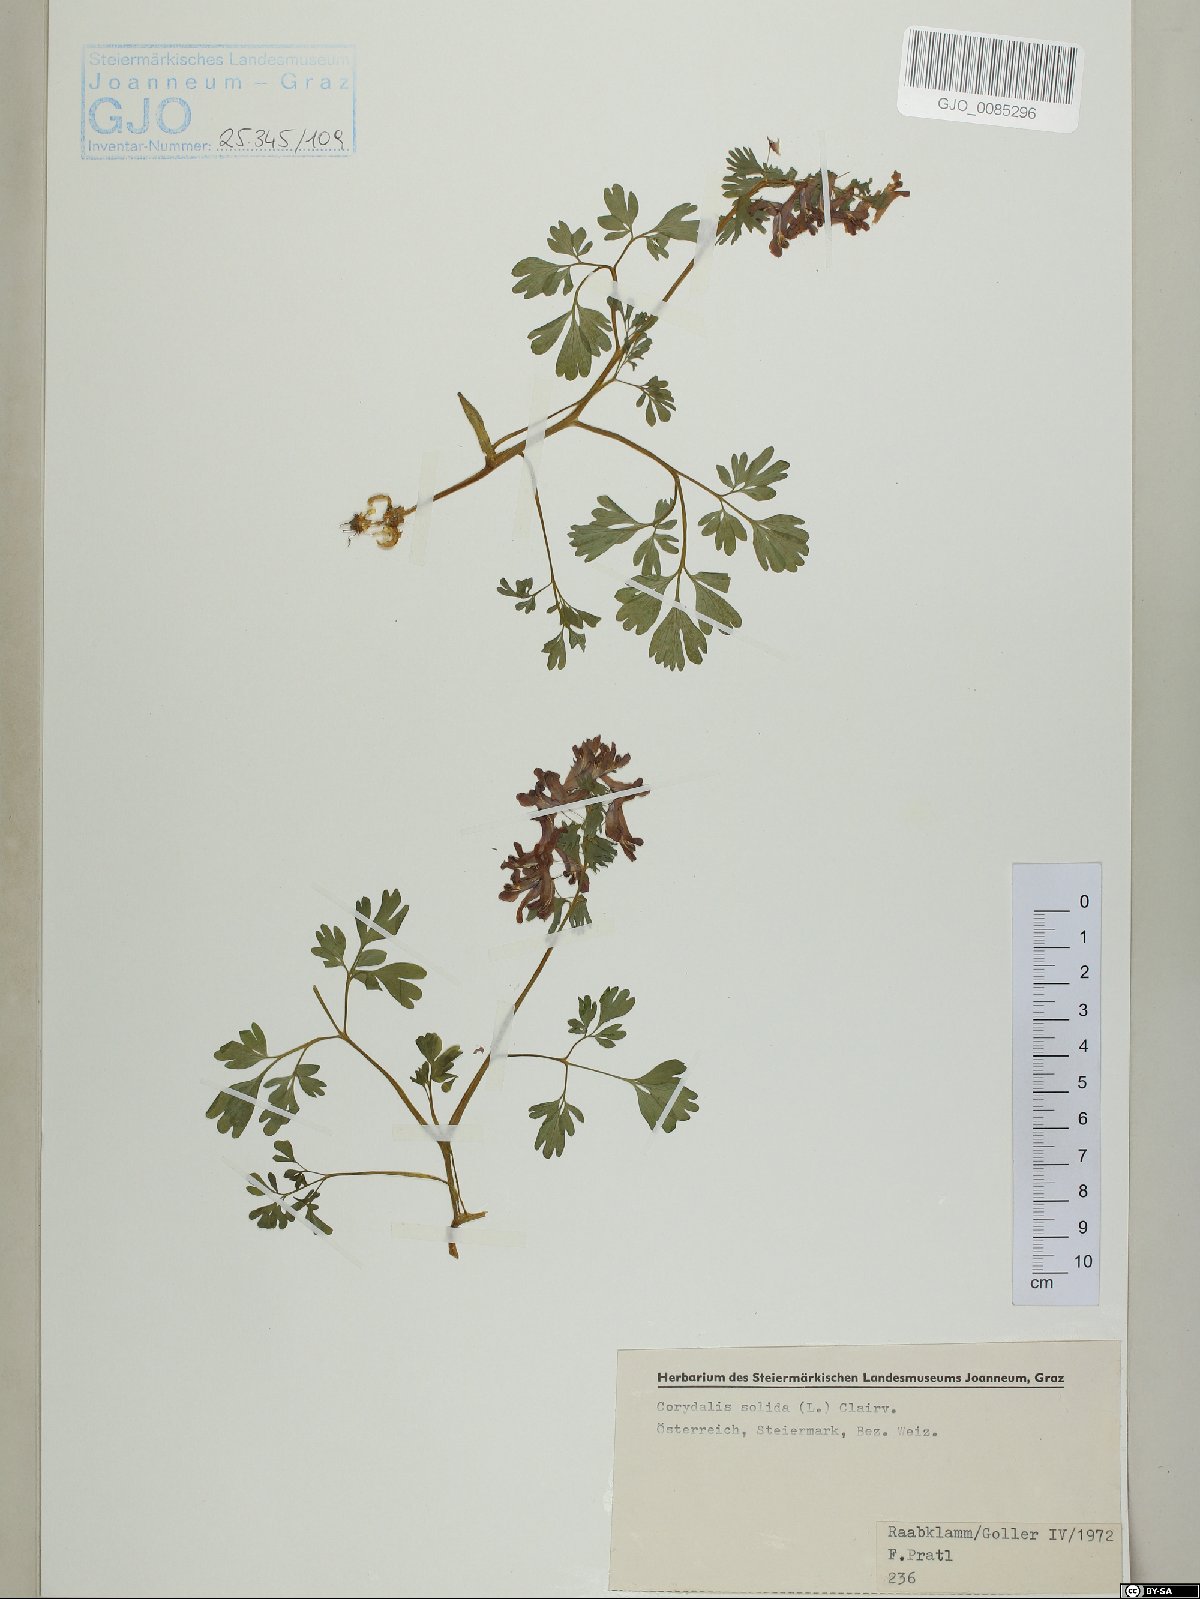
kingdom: Plantae
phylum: Tracheophyta
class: Magnoliopsida
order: Ranunculales
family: Papaveraceae
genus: Corydalis
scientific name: Corydalis solida
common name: Bird-in-a-bush
